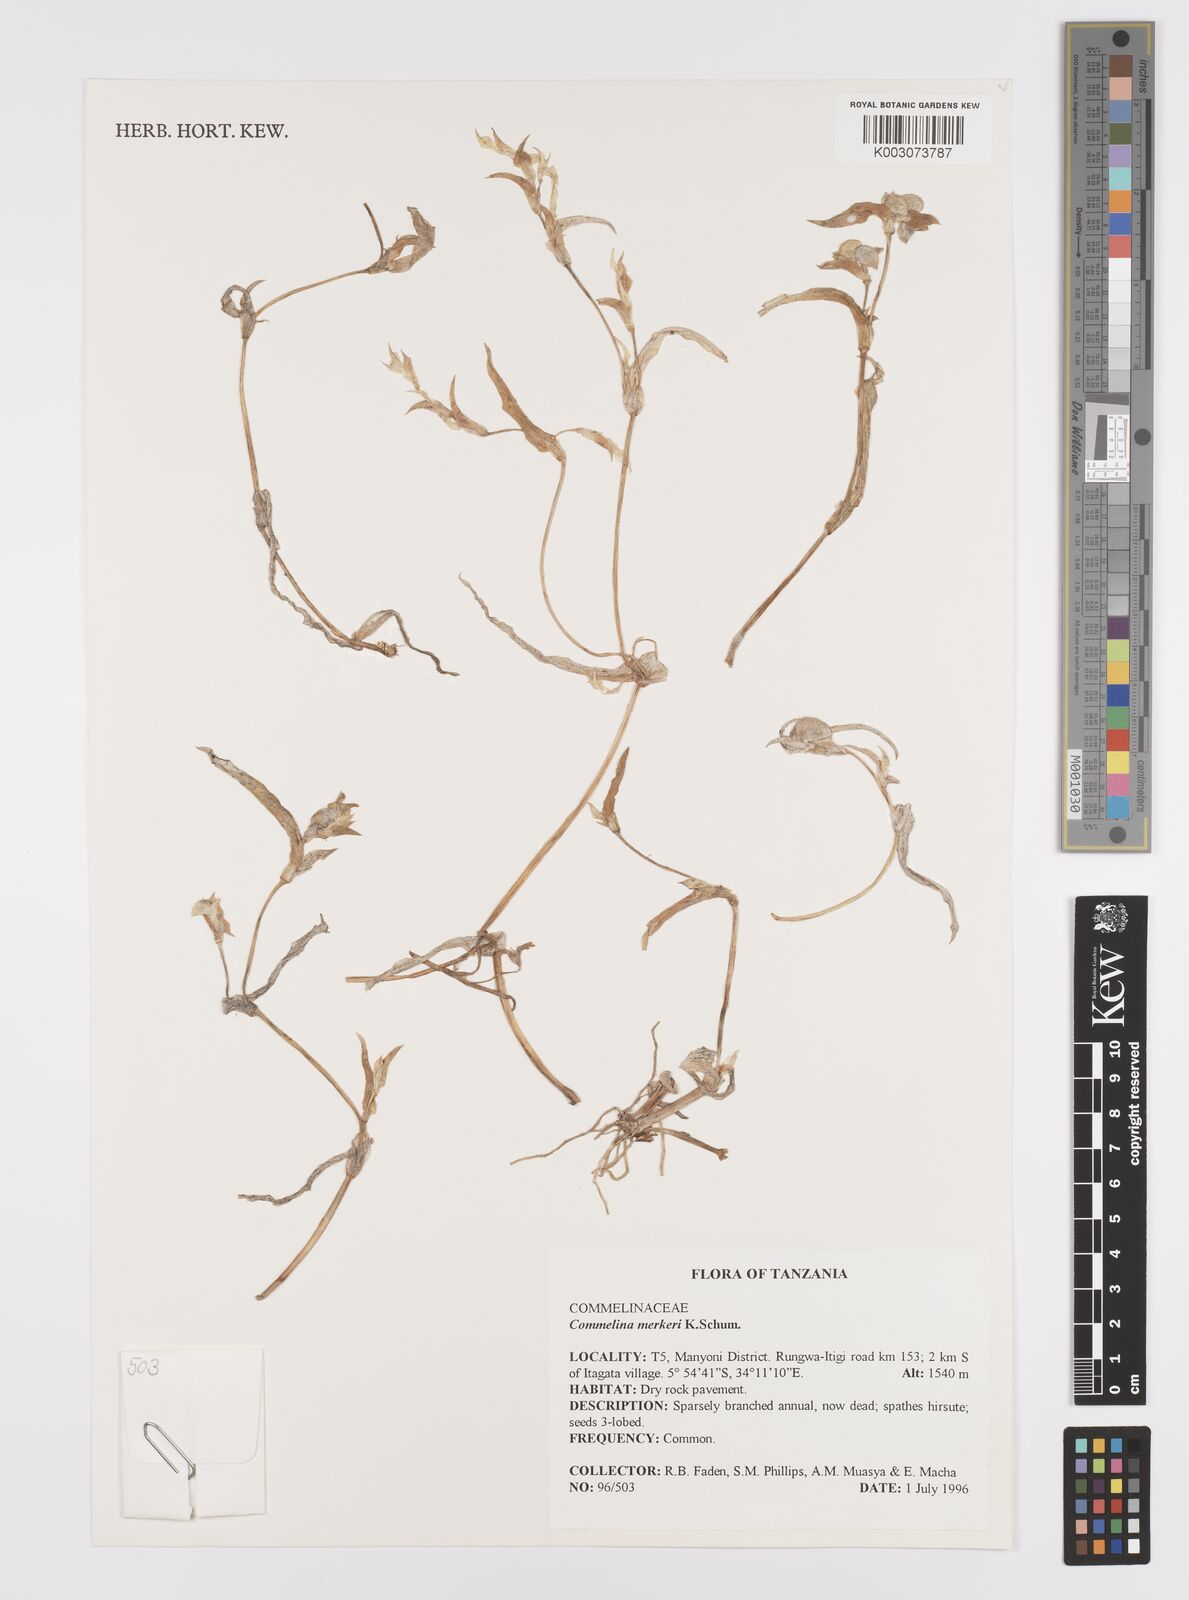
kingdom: Plantae
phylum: Tracheophyta
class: Liliopsida
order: Commelinales
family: Commelinaceae
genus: Commelina
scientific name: Commelina merkeri
